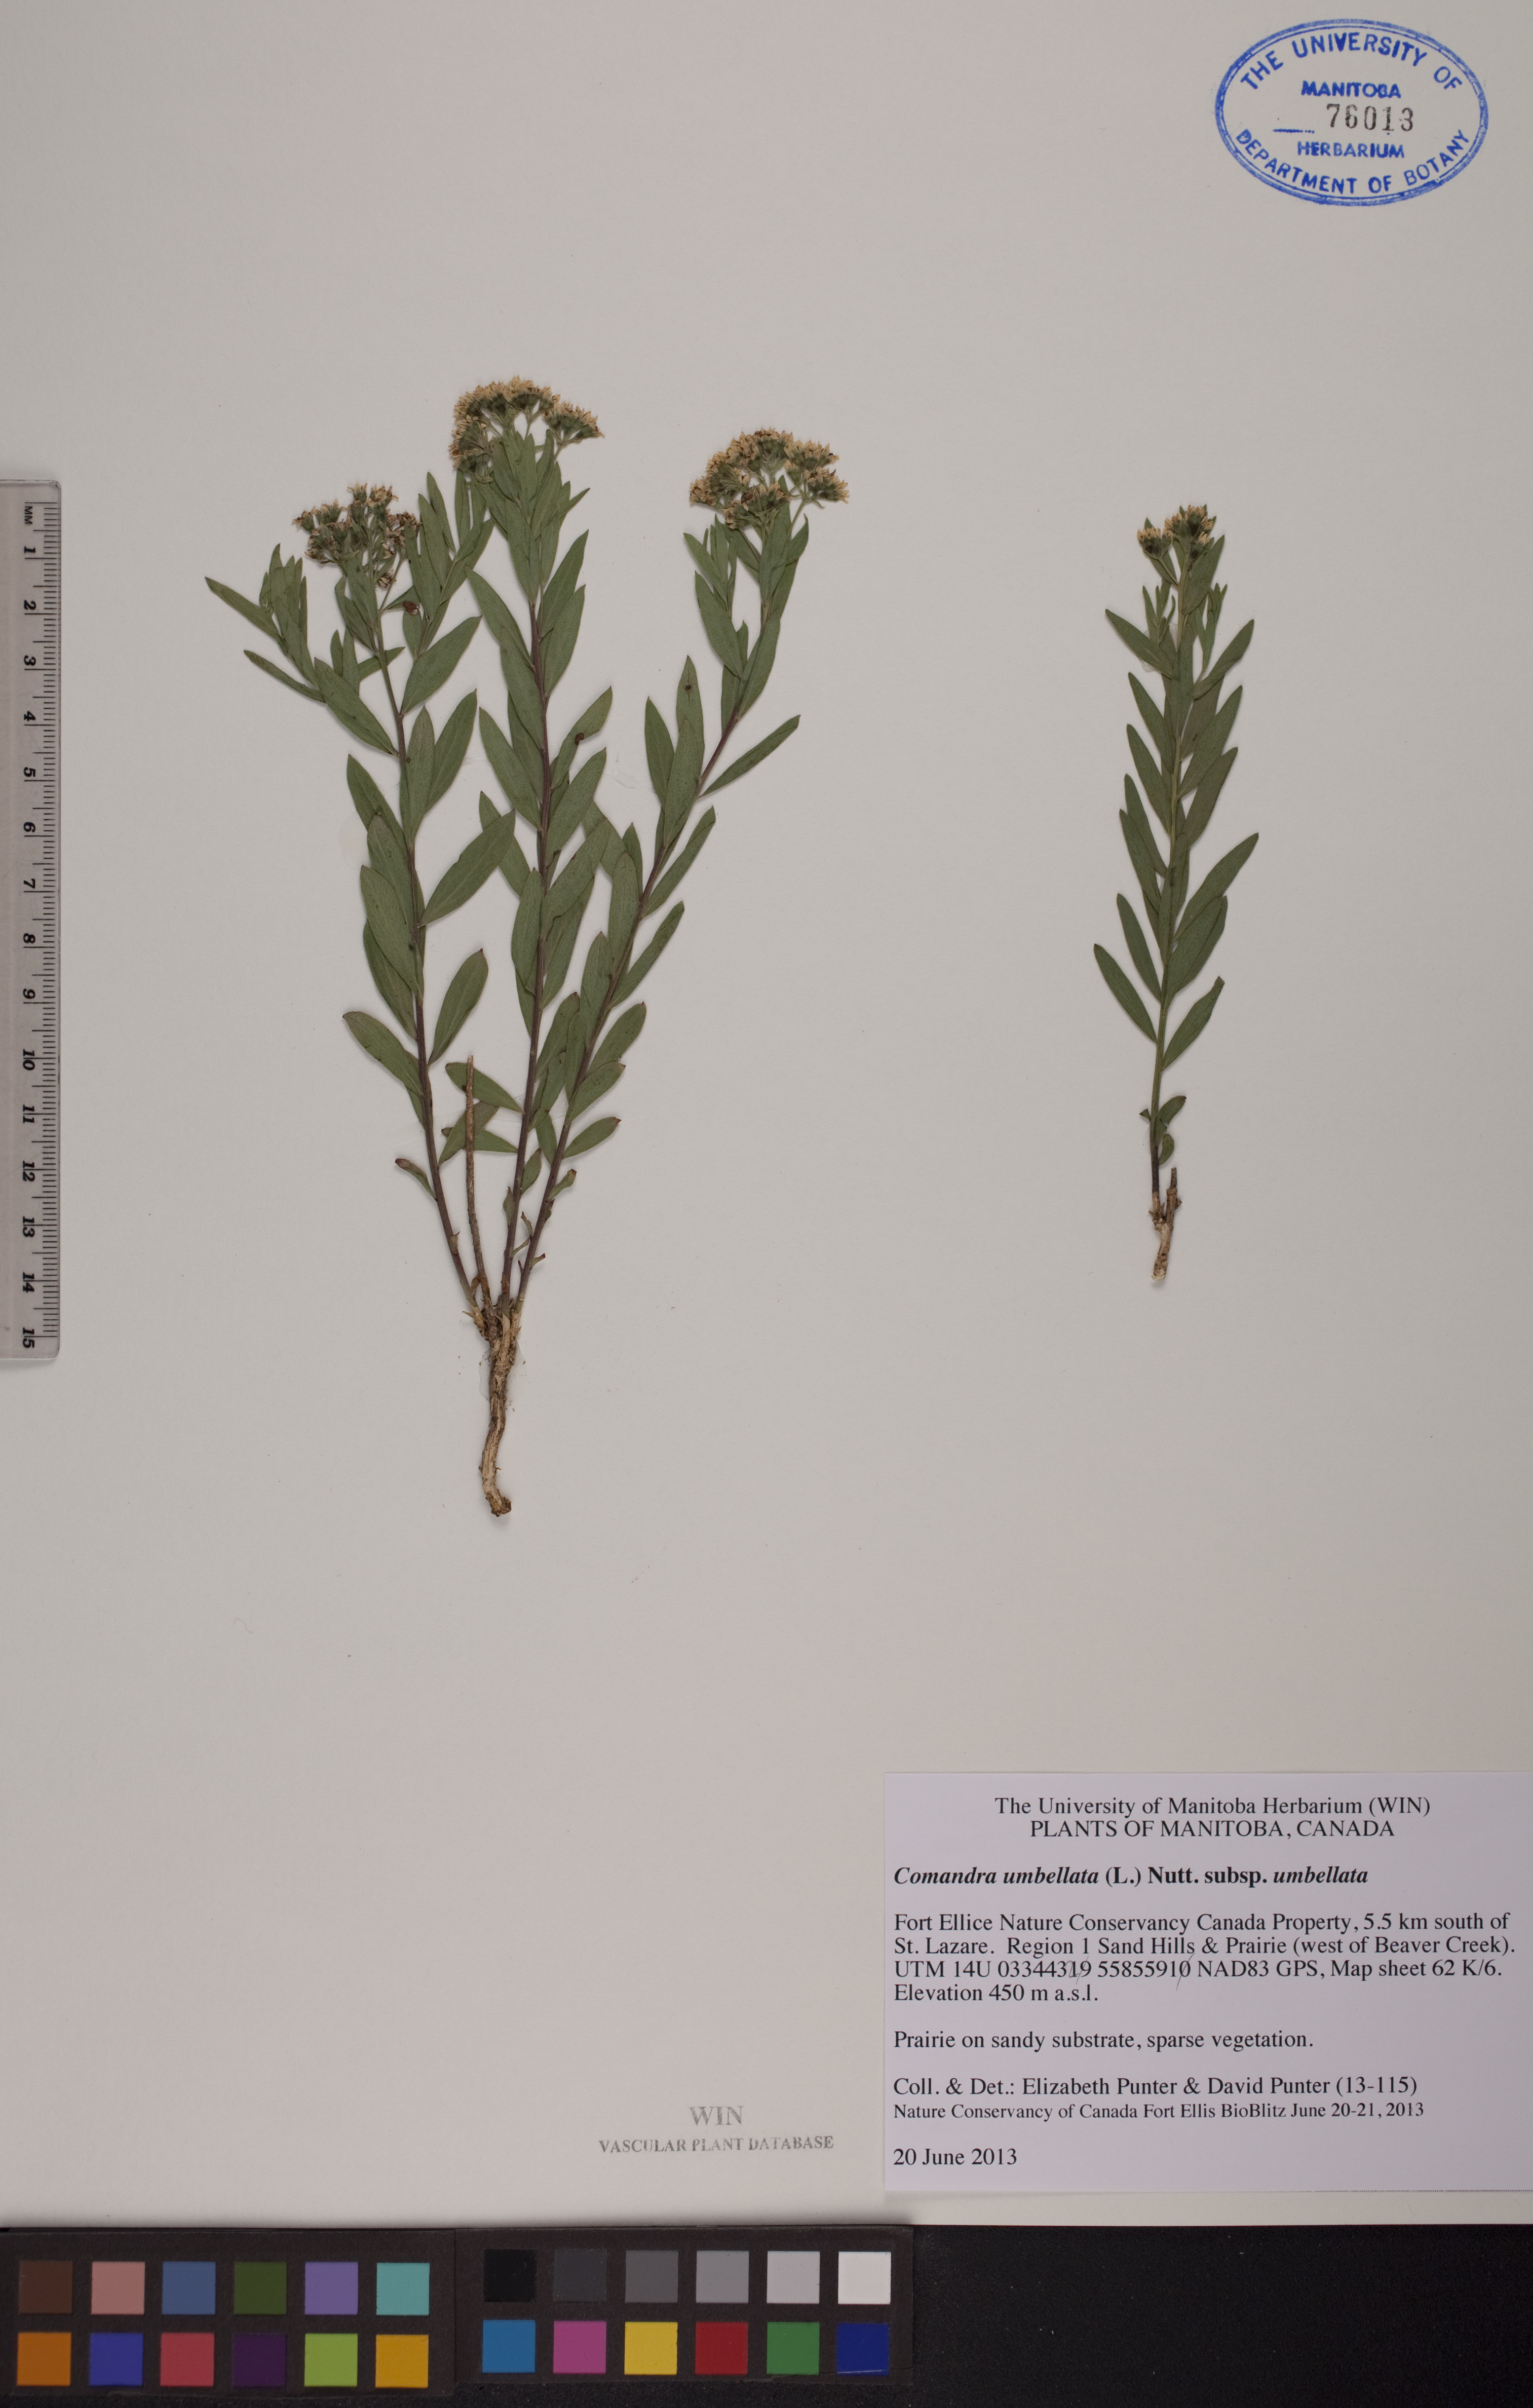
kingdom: Plantae
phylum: Tracheophyta
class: Magnoliopsida
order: Santalales
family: Comandraceae
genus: Comandra
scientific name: Comandra umbellata
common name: Bastard toadflax
